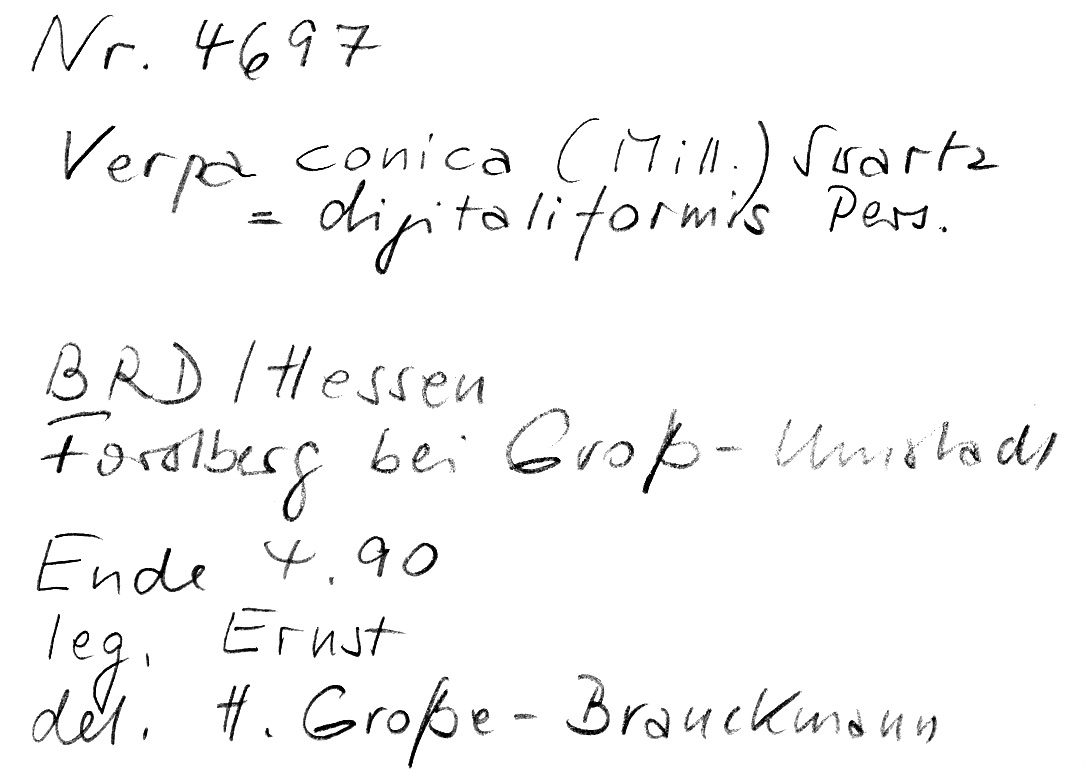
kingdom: Fungi
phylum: Ascomycota
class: Pezizomycetes
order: Pezizales
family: Morchellaceae
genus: Verpa
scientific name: Verpa conica
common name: Thimble morel
